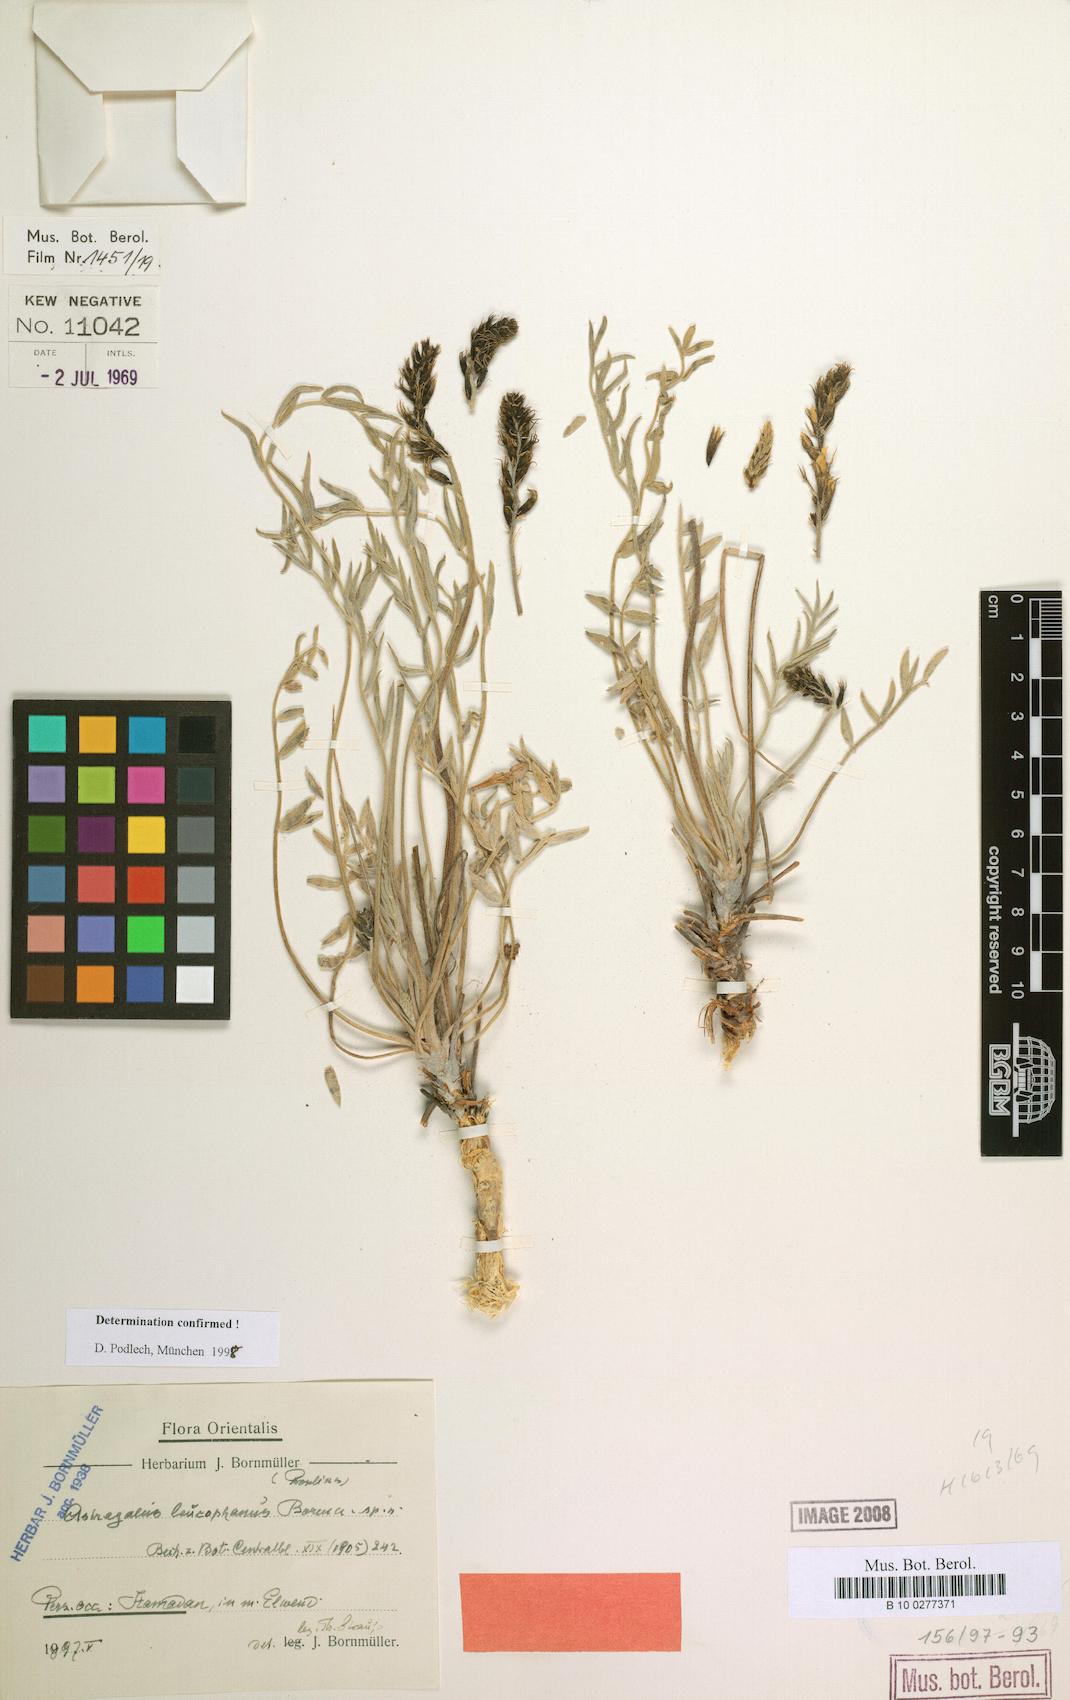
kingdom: Plantae
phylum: Tracheophyta
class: Magnoliopsida
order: Fabales
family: Fabaceae
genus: Astragalus
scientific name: Astragalus leucophanus
